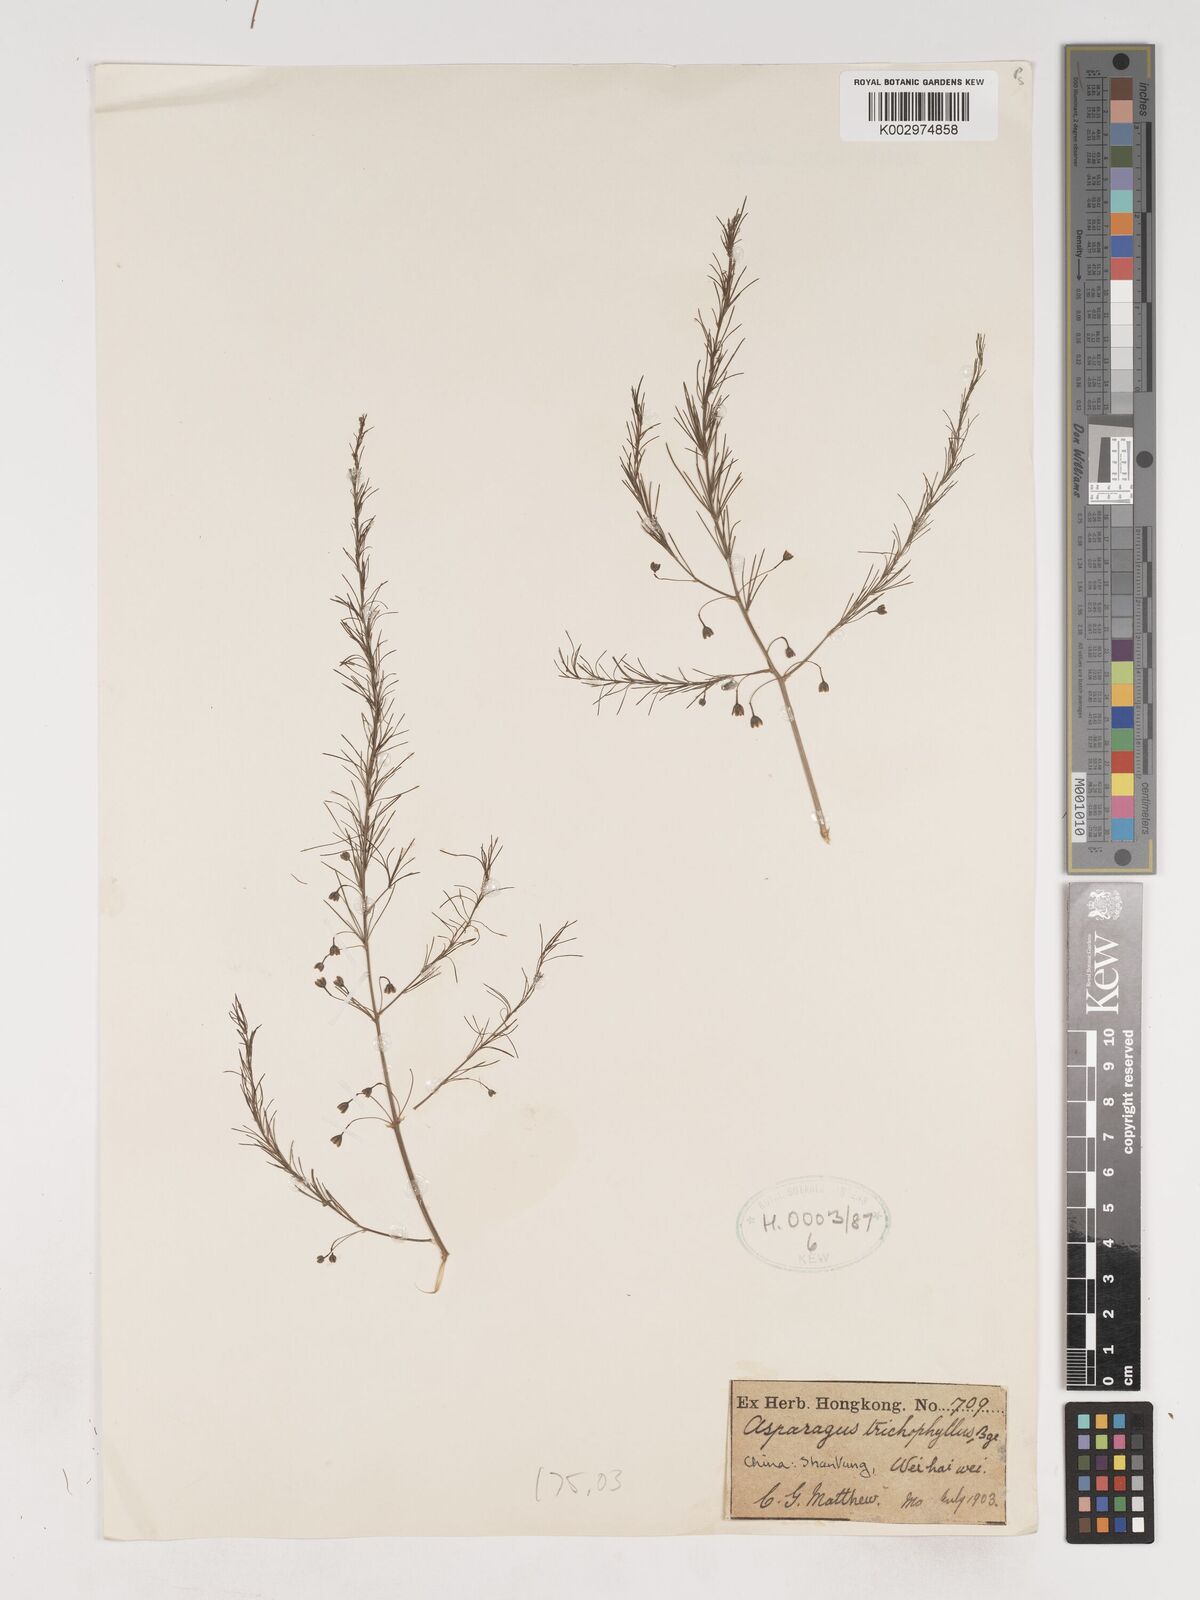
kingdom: Plantae
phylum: Tracheophyta
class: Liliopsida
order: Asparagales
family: Asparagaceae
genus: Asparagus
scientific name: Asparagus trichophyllus
